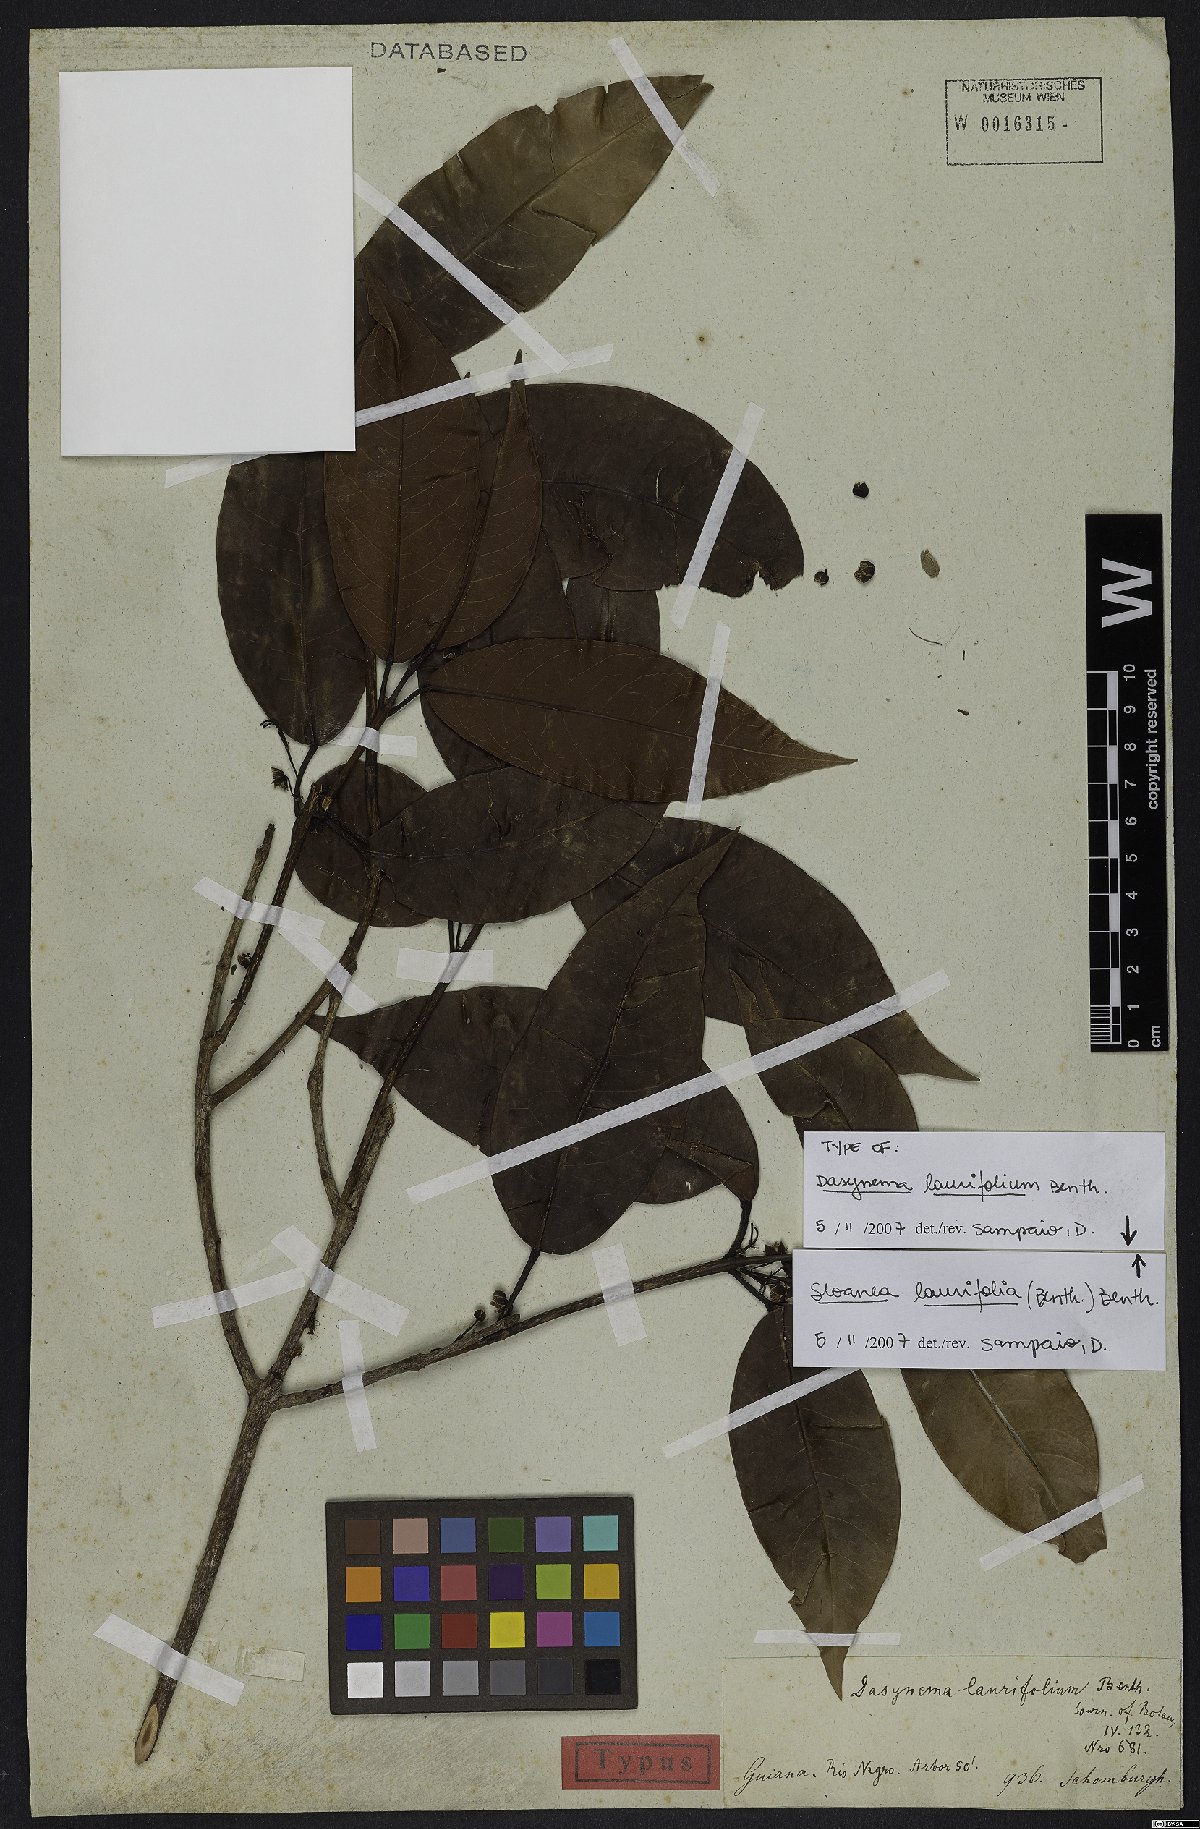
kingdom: Plantae
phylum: Tracheophyta
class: Magnoliopsida
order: Oxalidales
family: Elaeocarpaceae
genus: Sloanea
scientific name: Sloanea laurifolia
